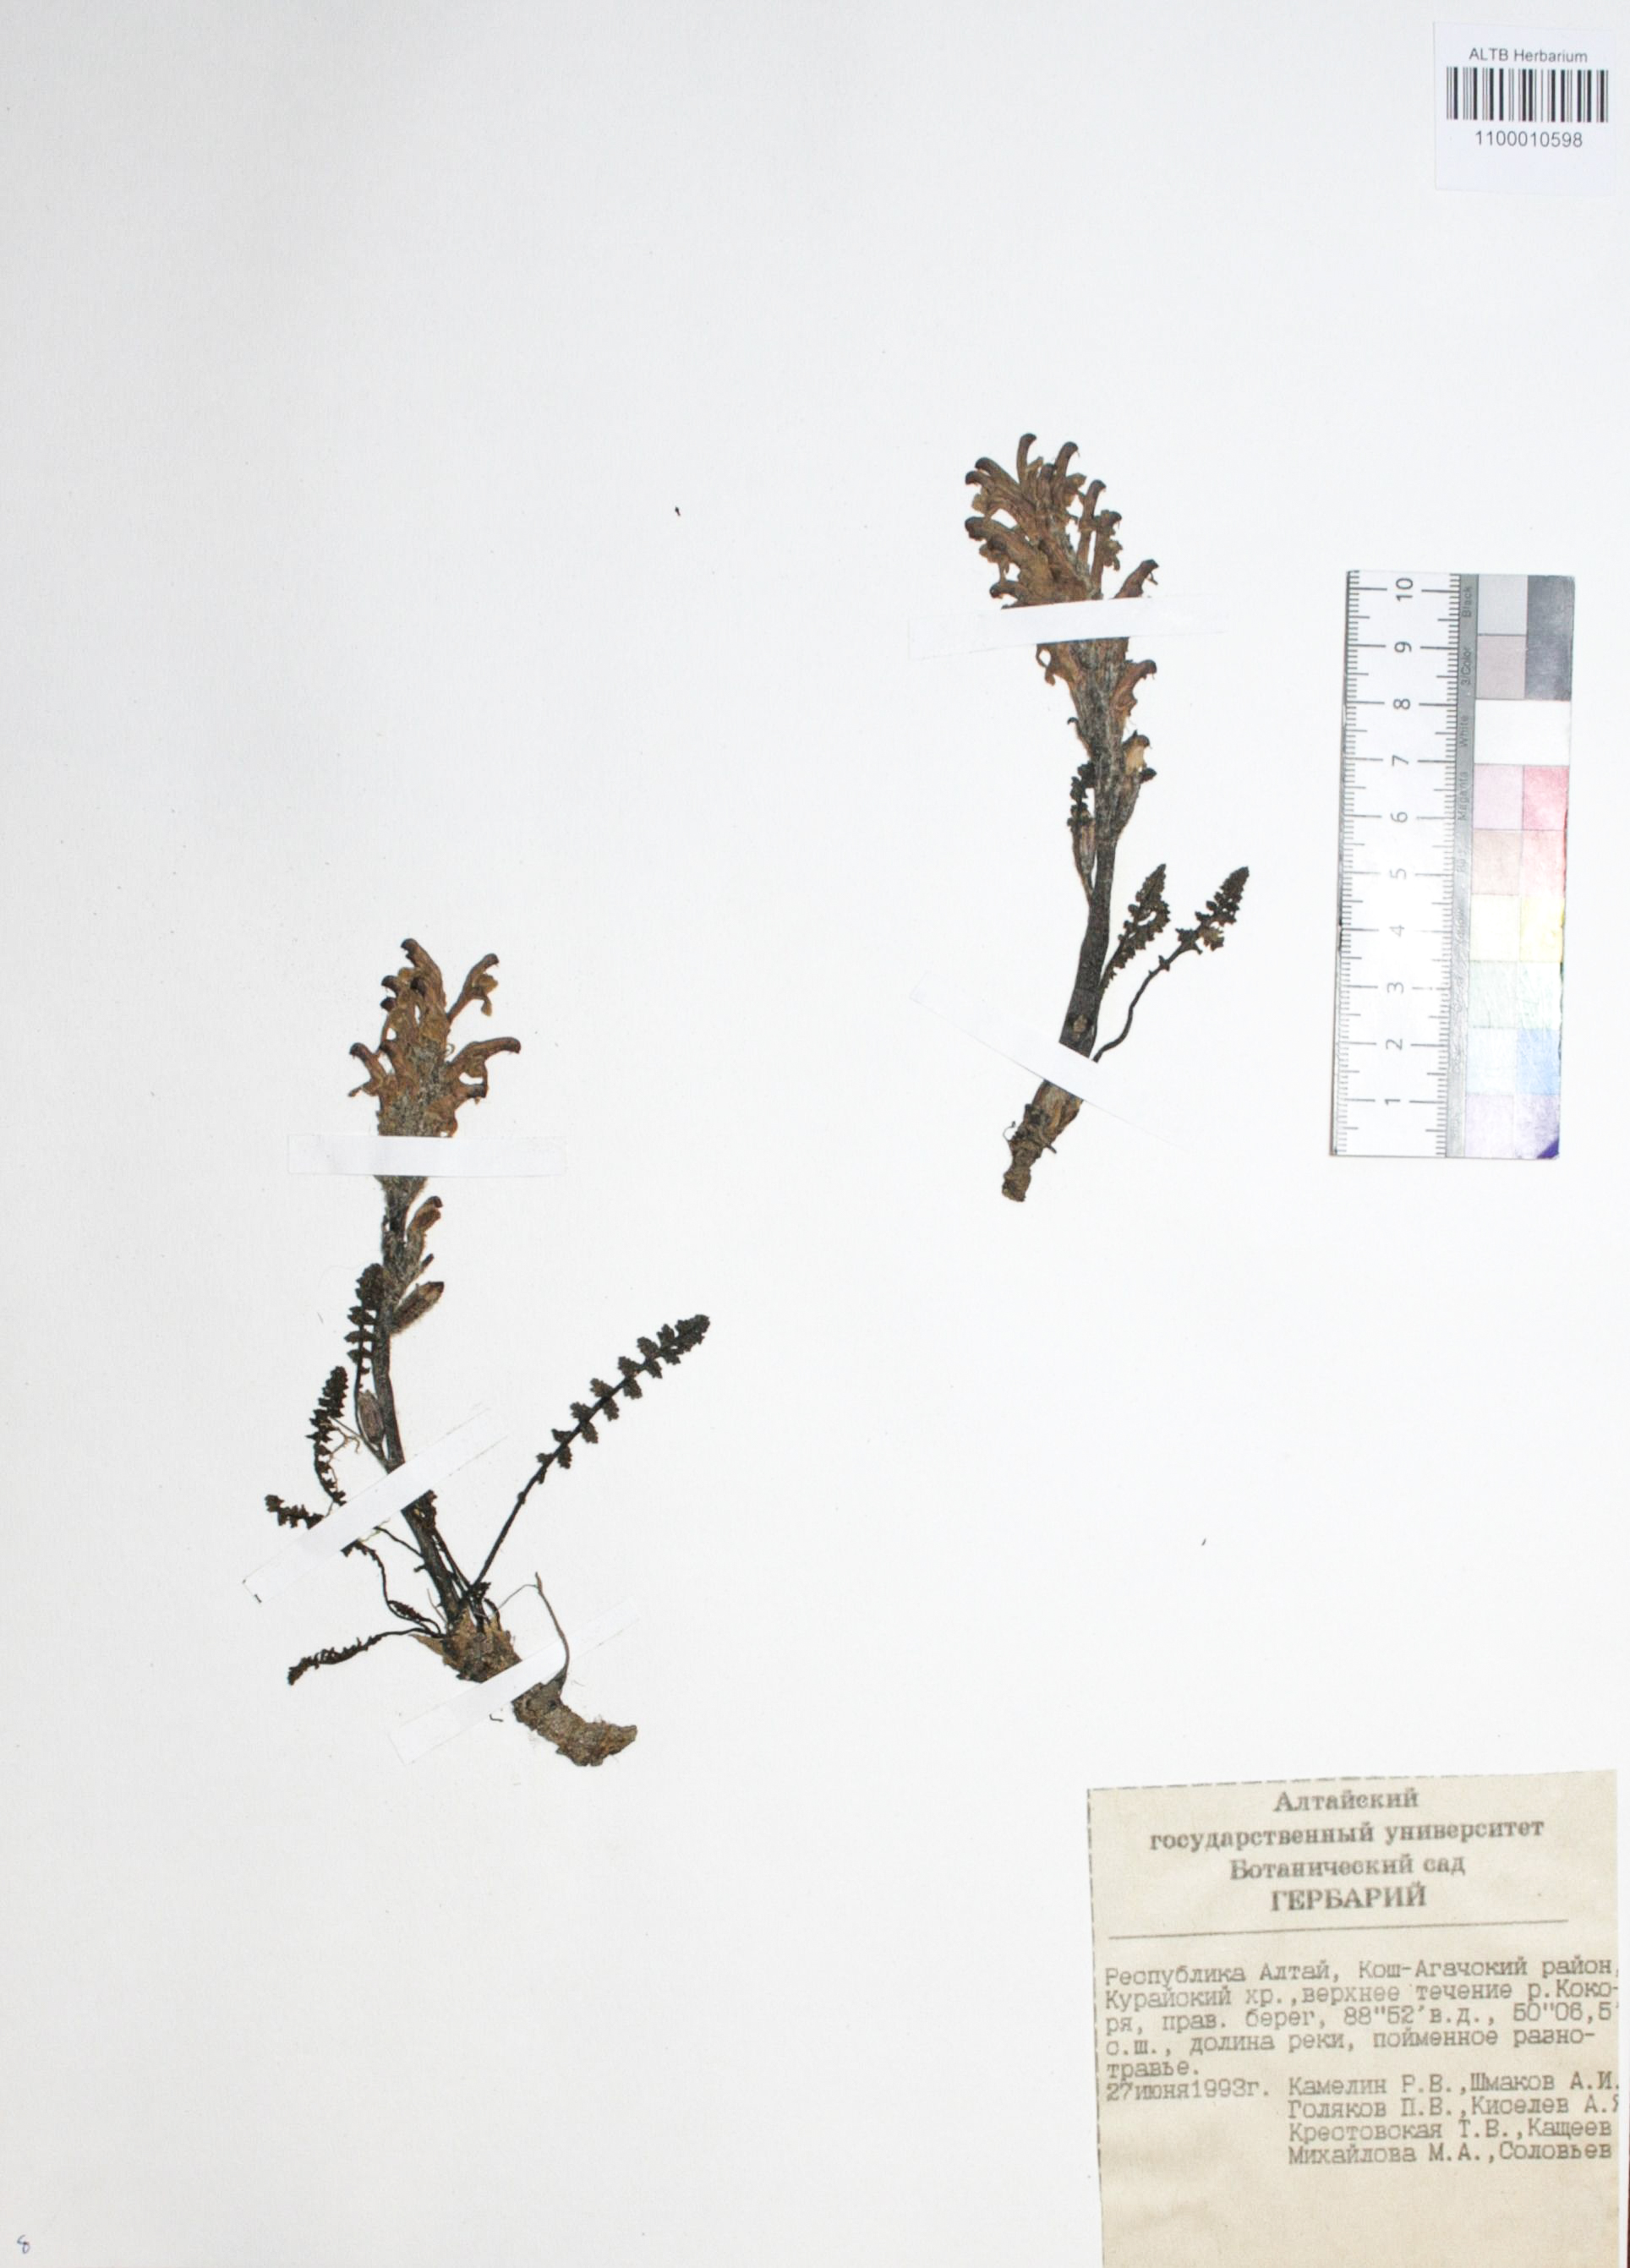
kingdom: Plantae
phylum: Tracheophyta
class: Magnoliopsida
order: Lamiales
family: Orobanchaceae
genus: Pedicularis
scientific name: Pedicularis anthemifolia
